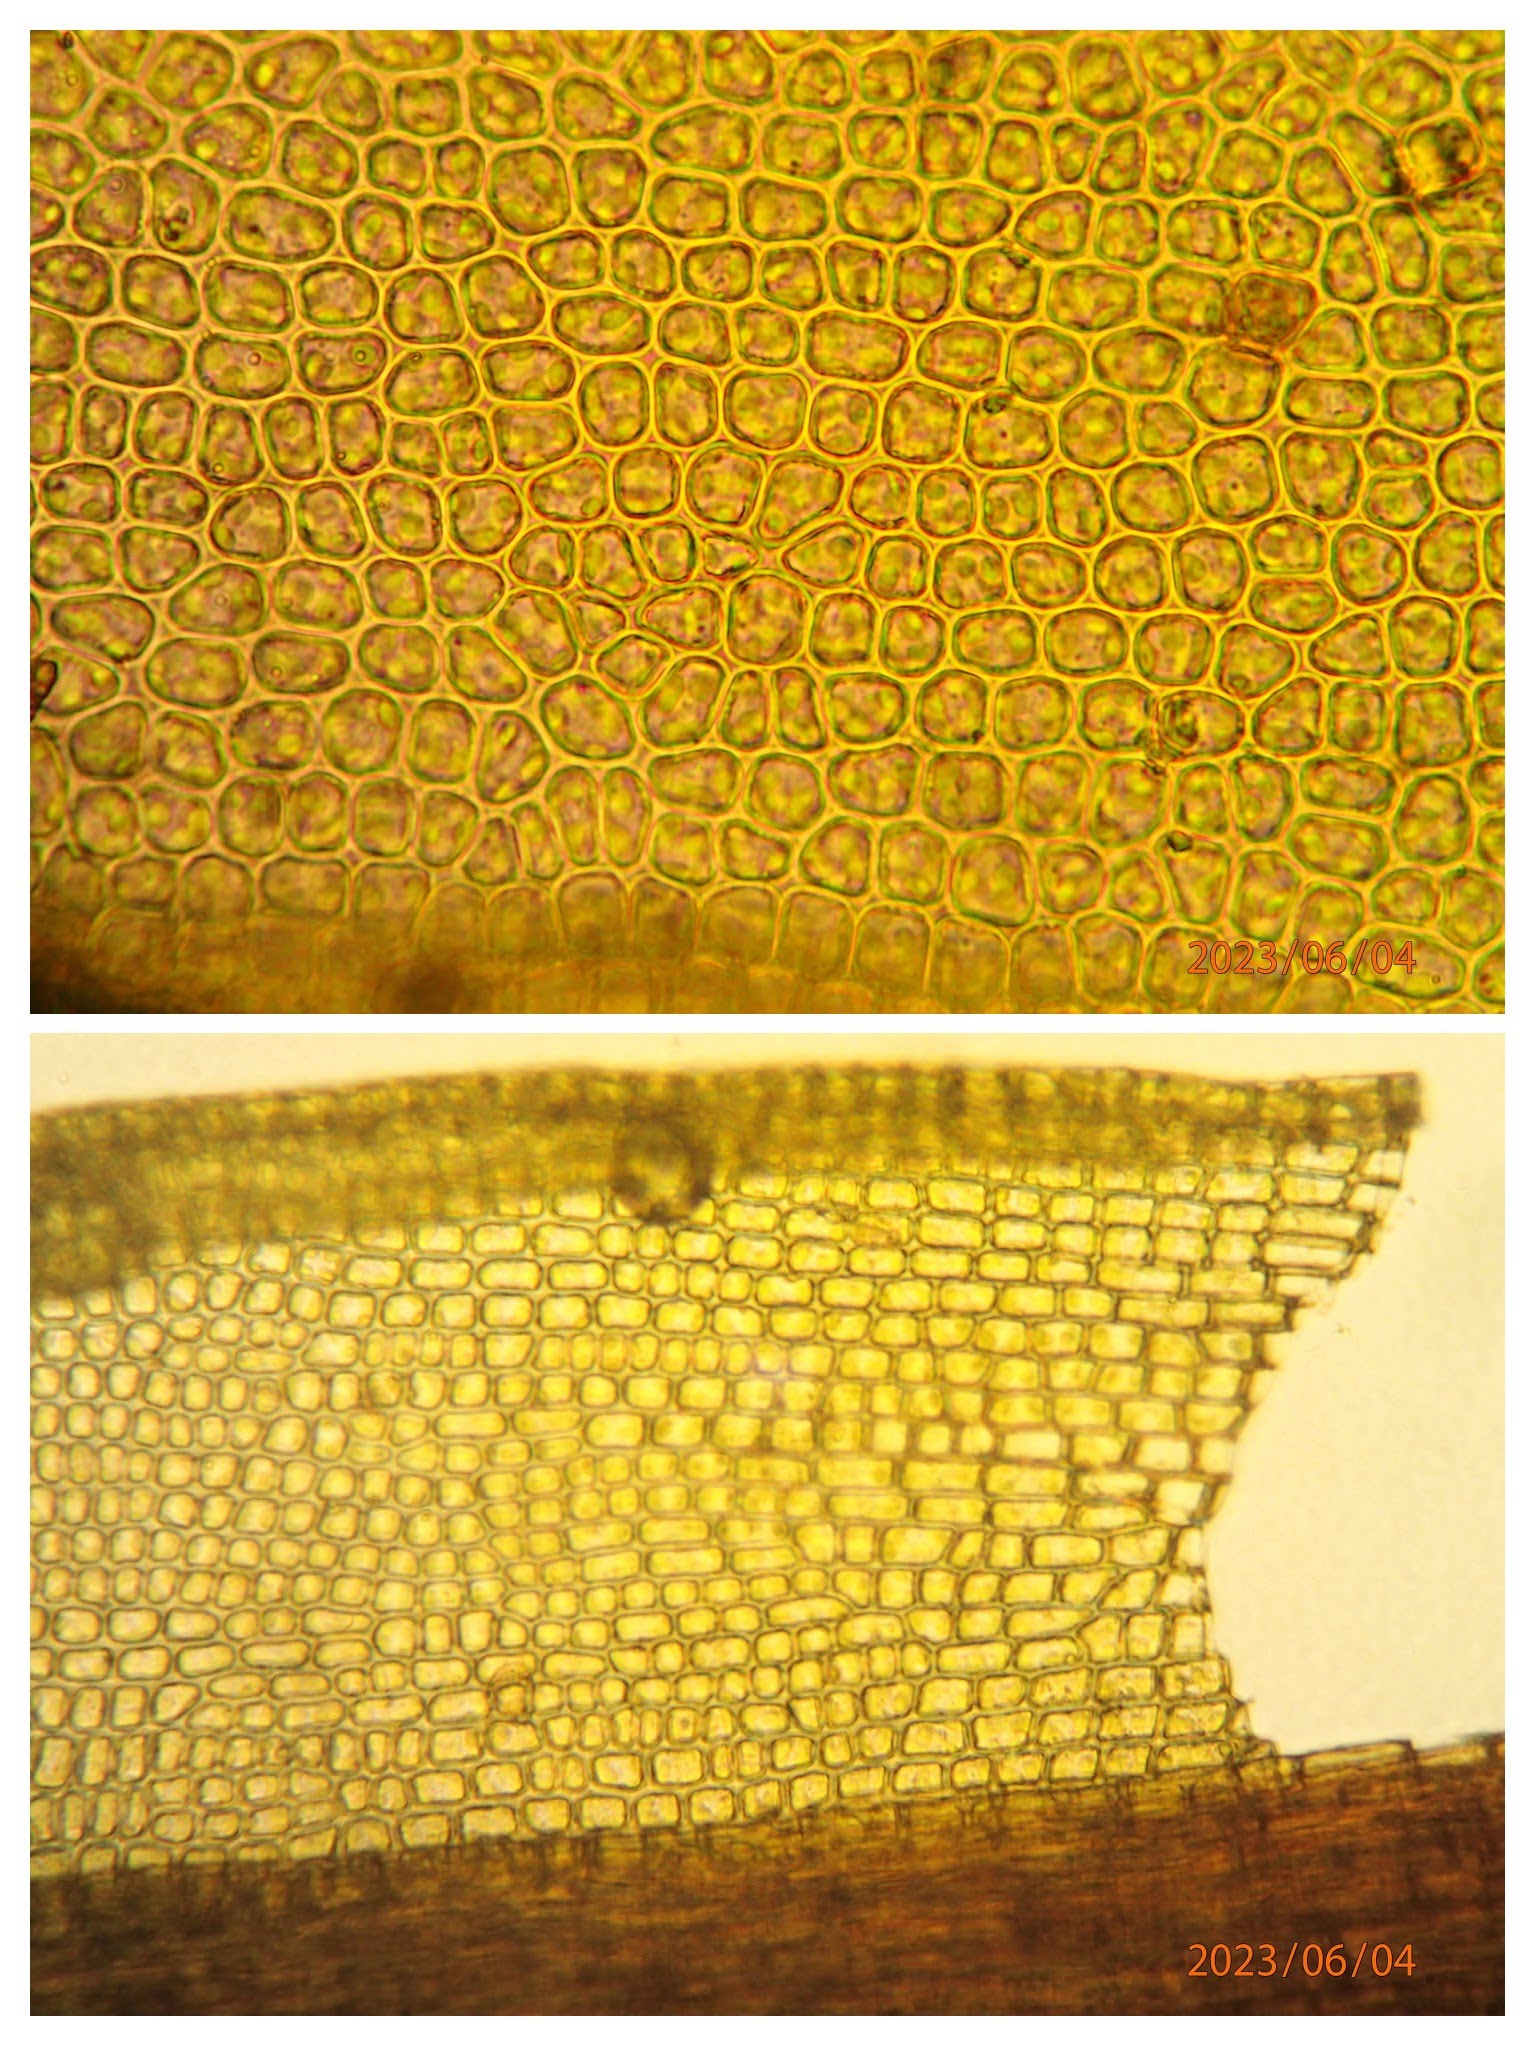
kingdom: Plantae
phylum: Bryophyta
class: Bryopsida
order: Dicranales
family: Ditrichaceae
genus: Ceratodon
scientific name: Ceratodon purpureus
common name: Rød horntand
